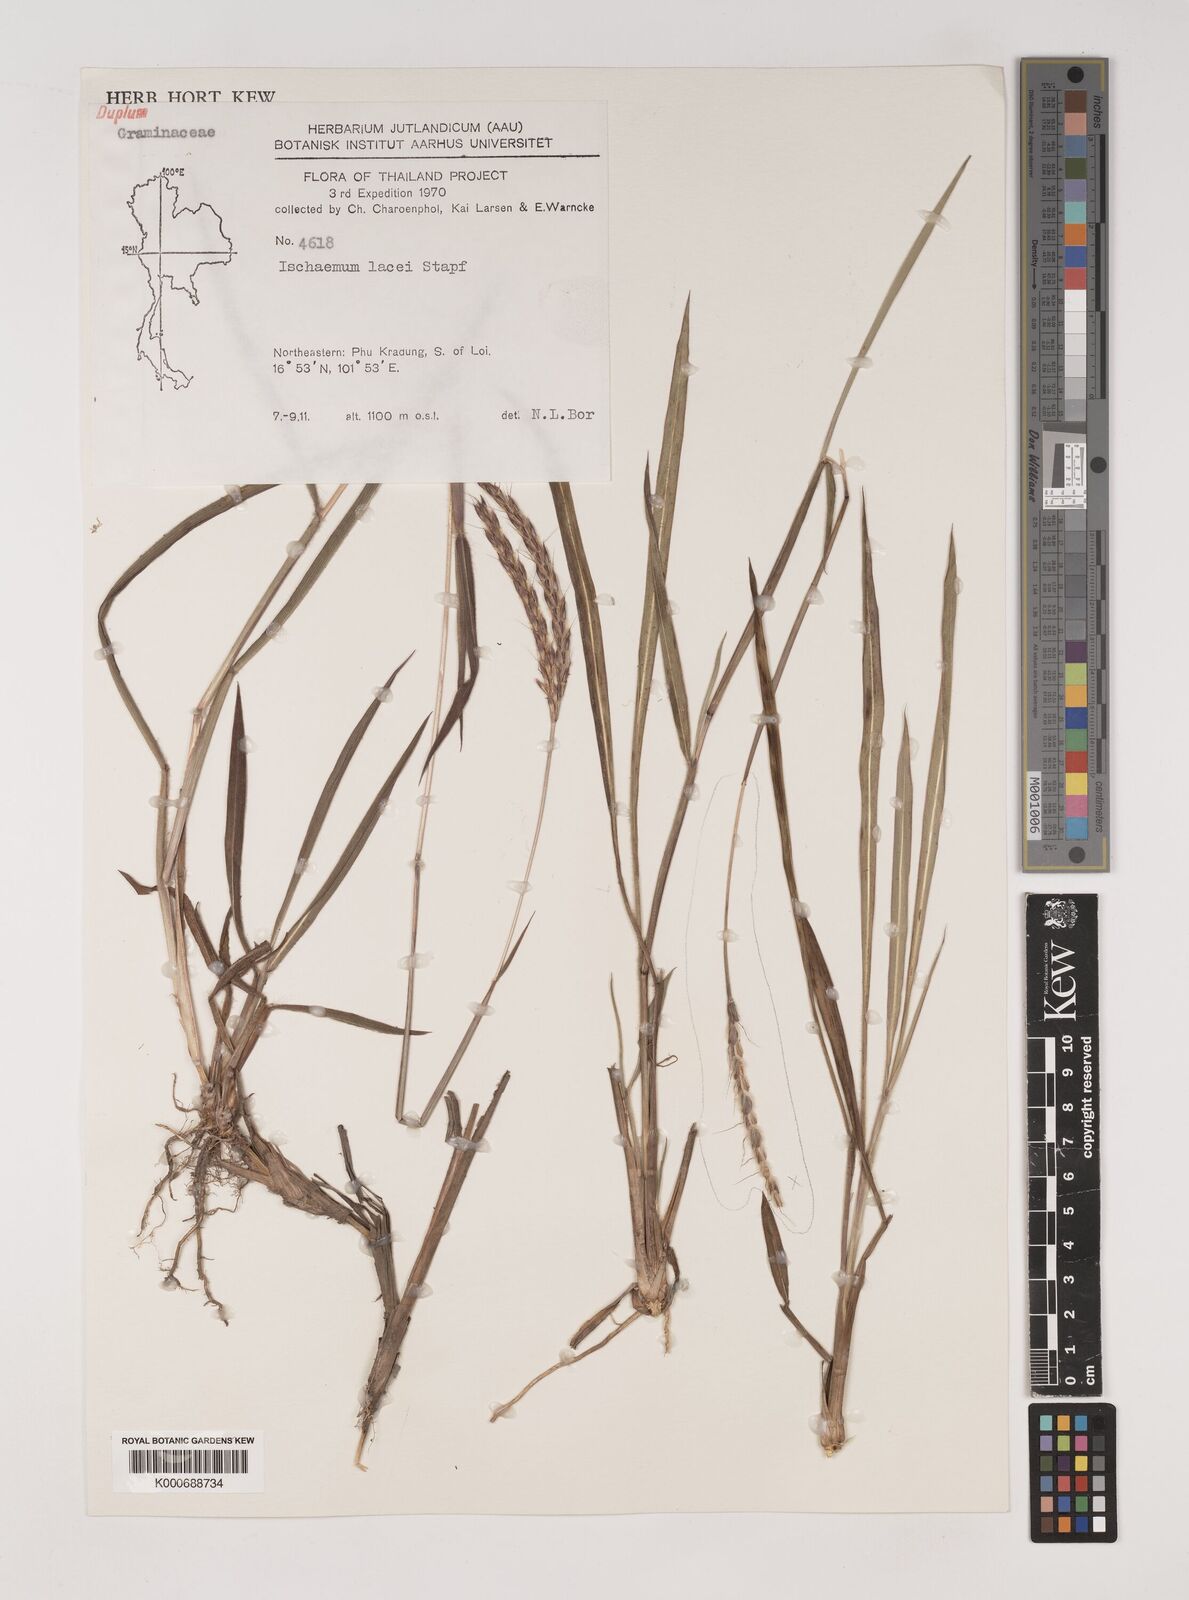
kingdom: Plantae
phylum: Tracheophyta
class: Liliopsida
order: Poales
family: Poaceae
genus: Polytrias
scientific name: Polytrias indica
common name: Indian murainagrass
